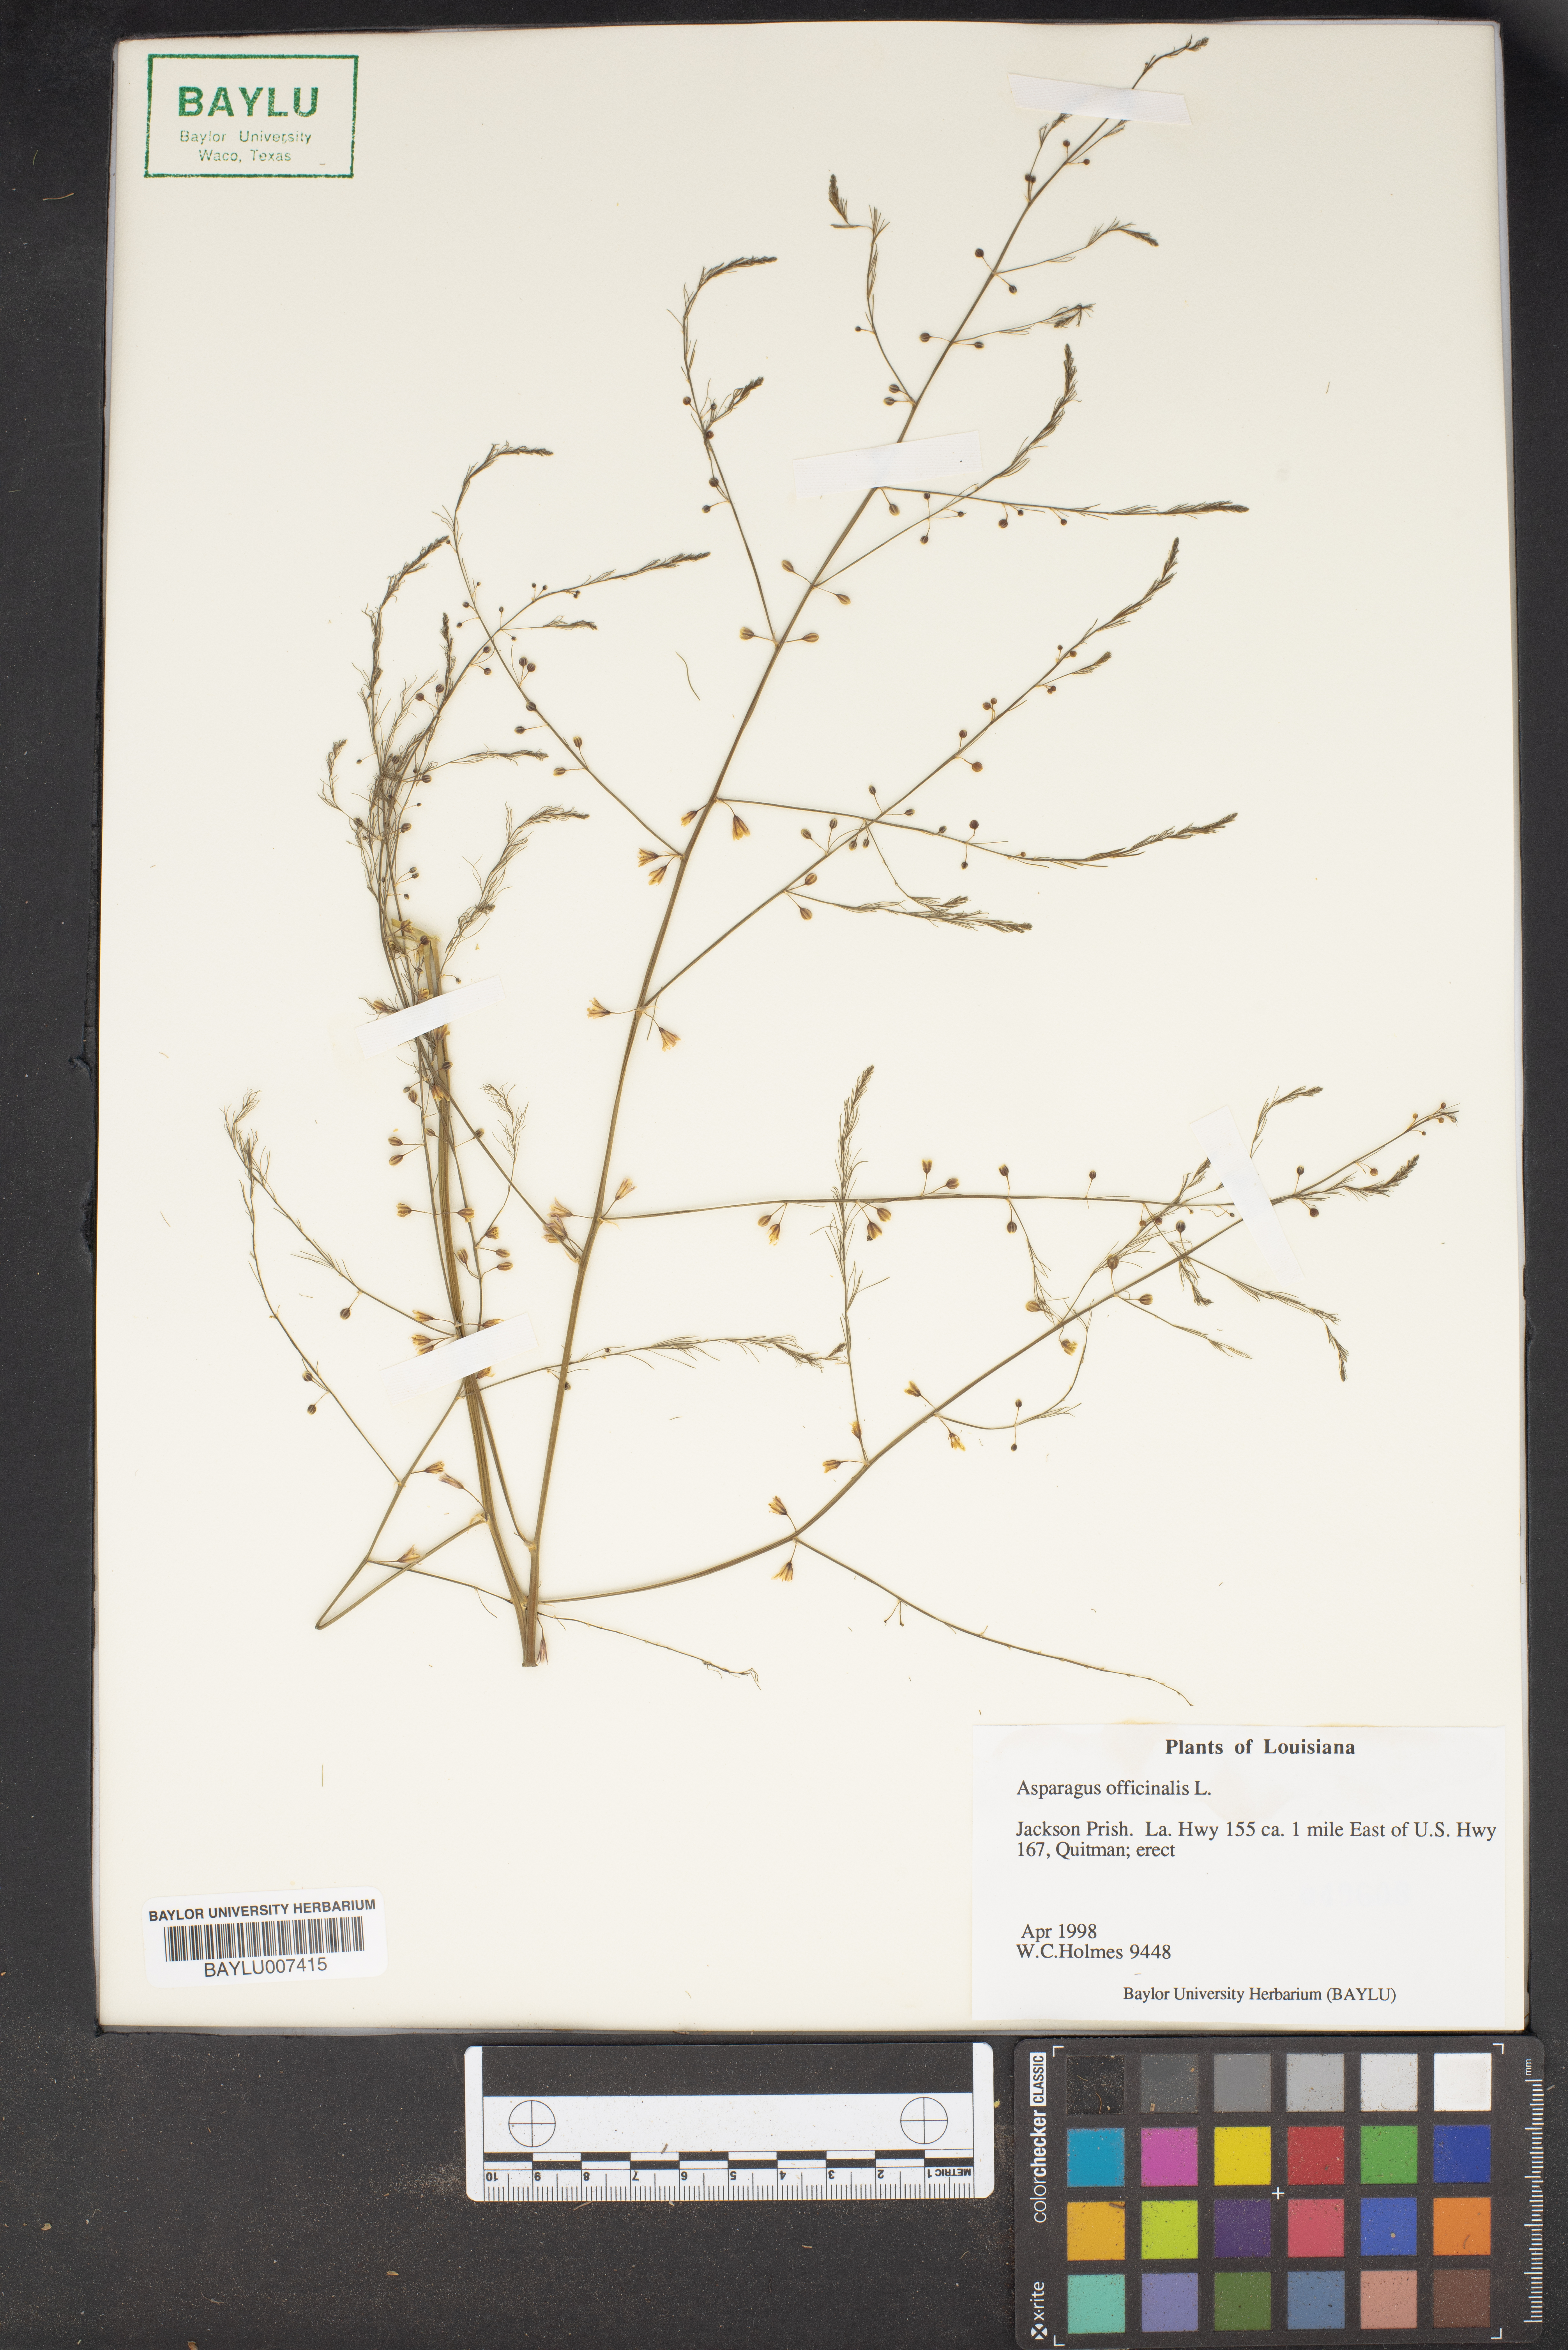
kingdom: Plantae
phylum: Tracheophyta
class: Liliopsida
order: Asparagales
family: Asparagaceae
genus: Asparagus
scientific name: Asparagus officinalis
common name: Garden asparagus
